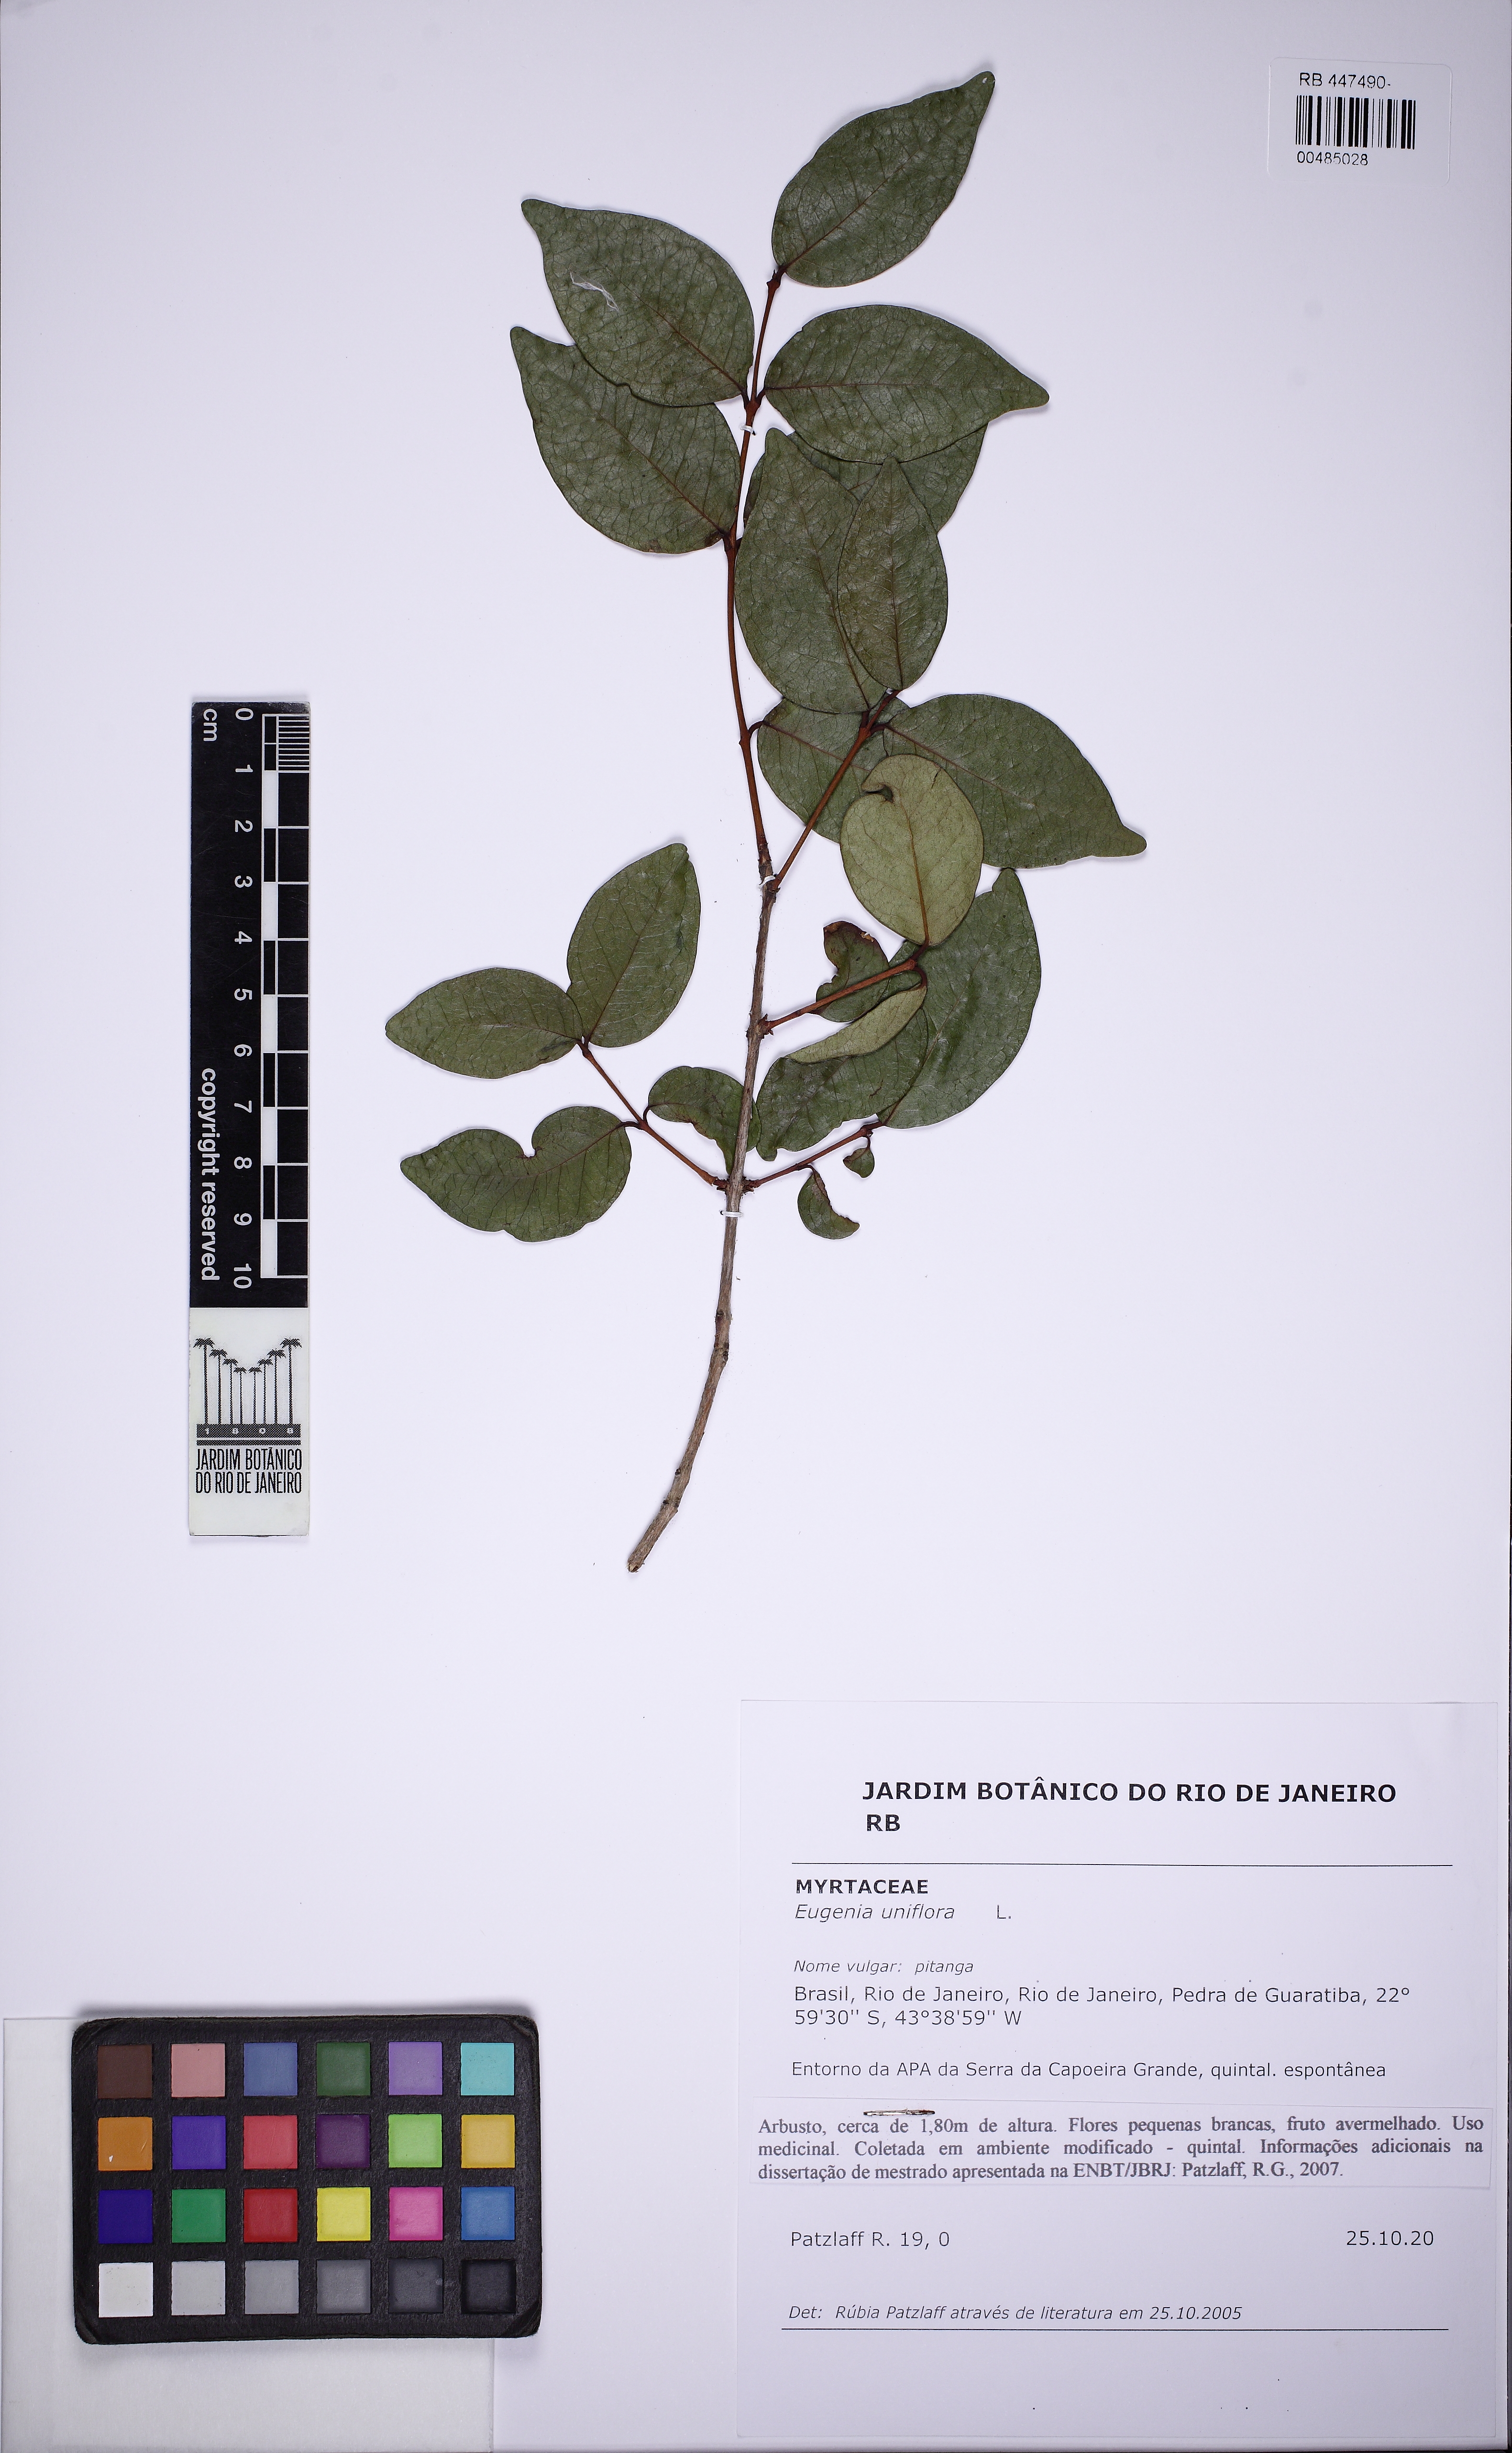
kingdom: Plantae
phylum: Tracheophyta
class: Magnoliopsida
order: Myrtales
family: Myrtaceae
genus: Eugenia
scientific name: Eugenia uniflora
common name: Surinam cherry
